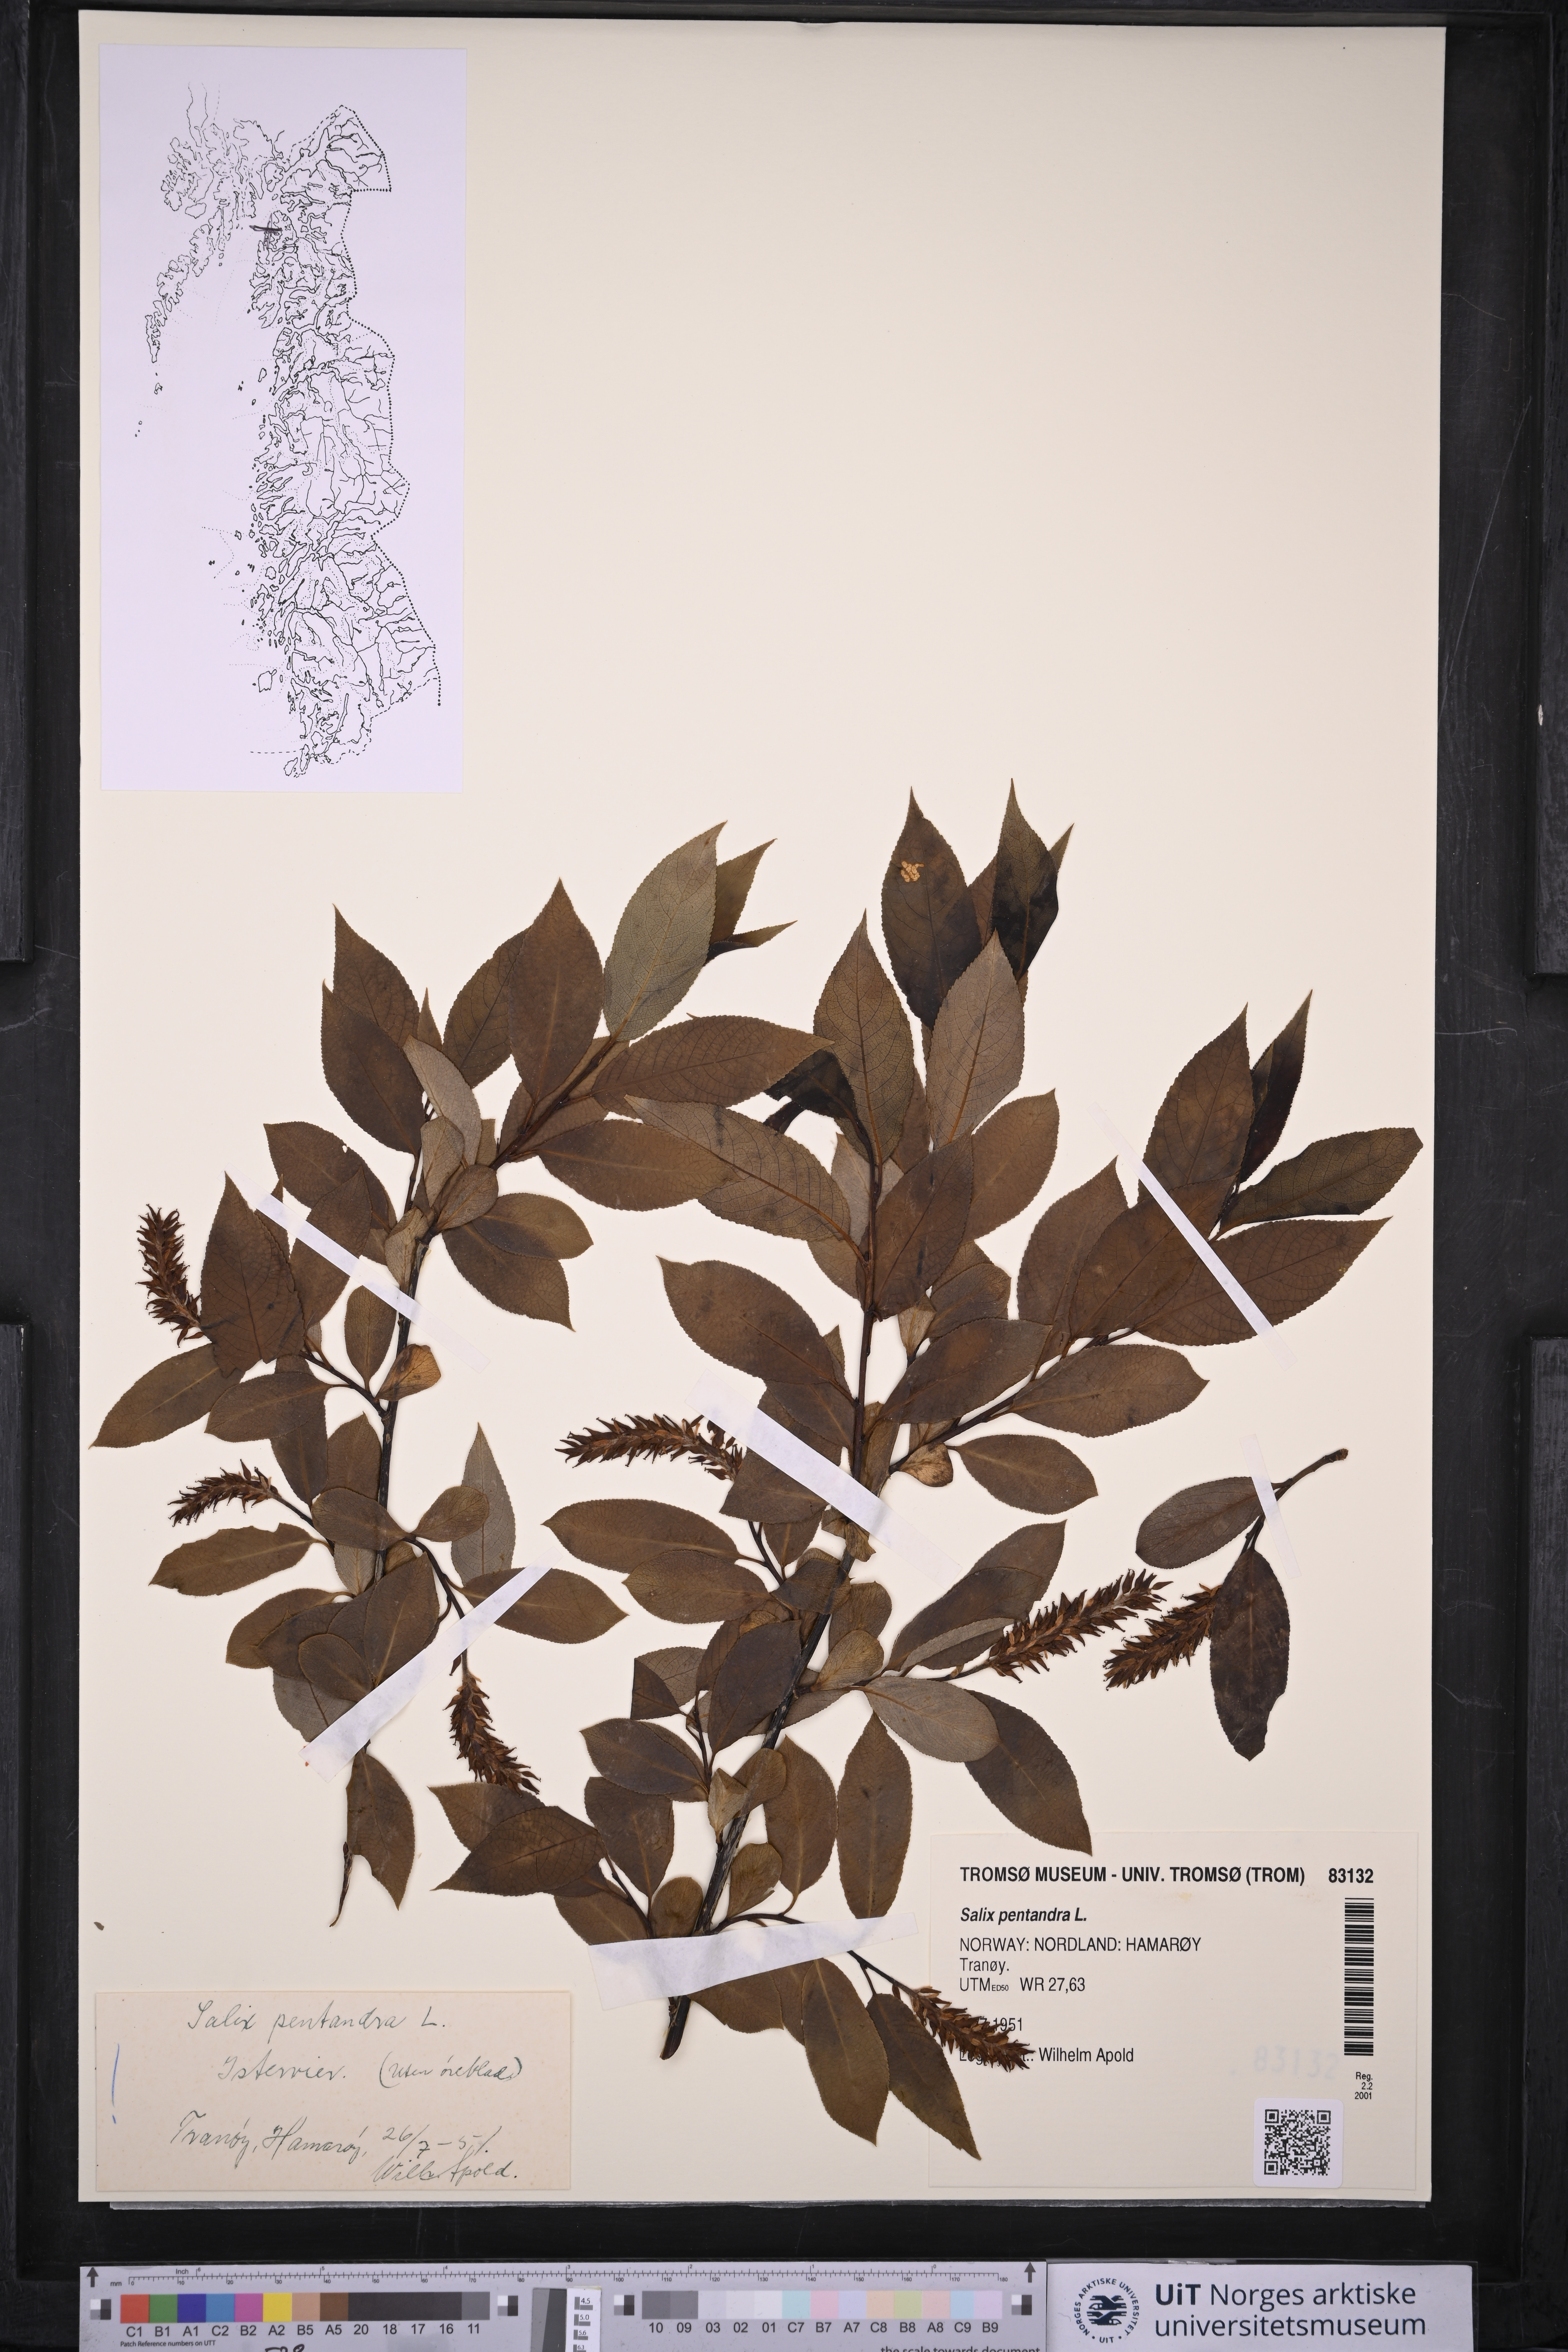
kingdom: Plantae
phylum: Tracheophyta
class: Magnoliopsida
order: Malpighiales
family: Salicaceae
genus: Salix
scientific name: Salix pentandra
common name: Bay willow
